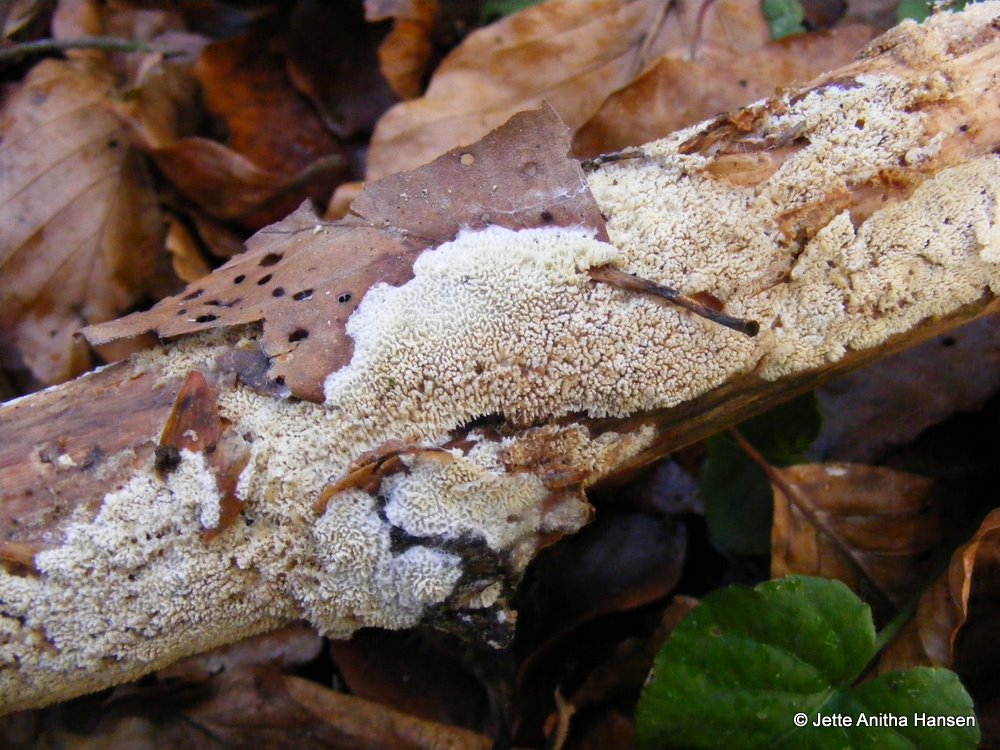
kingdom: Fungi
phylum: Basidiomycota
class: Agaricomycetes
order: Hymenochaetales
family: Schizoporaceae
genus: Xylodon
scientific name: Xylodon subtropicus
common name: labyrint-tandsvamp
